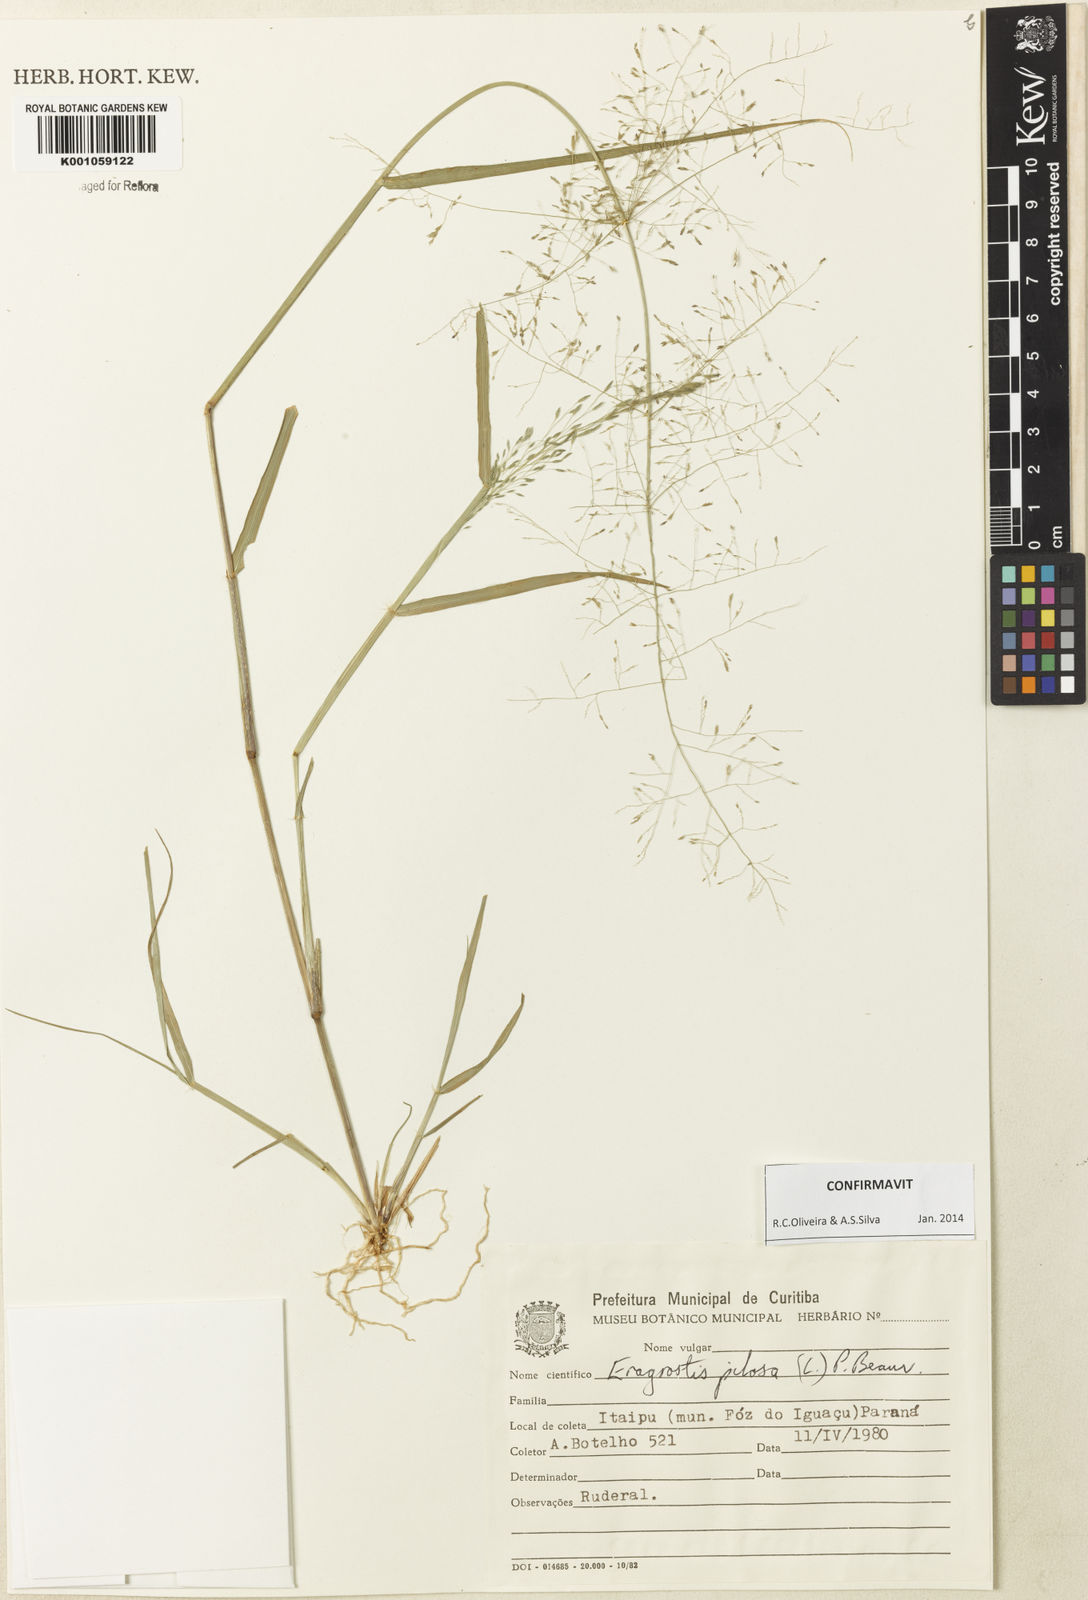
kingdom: Plantae
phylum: Tracheophyta
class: Liliopsida
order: Poales
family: Poaceae
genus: Eragrostis
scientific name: Eragrostis pilosa
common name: Indian lovegrass
